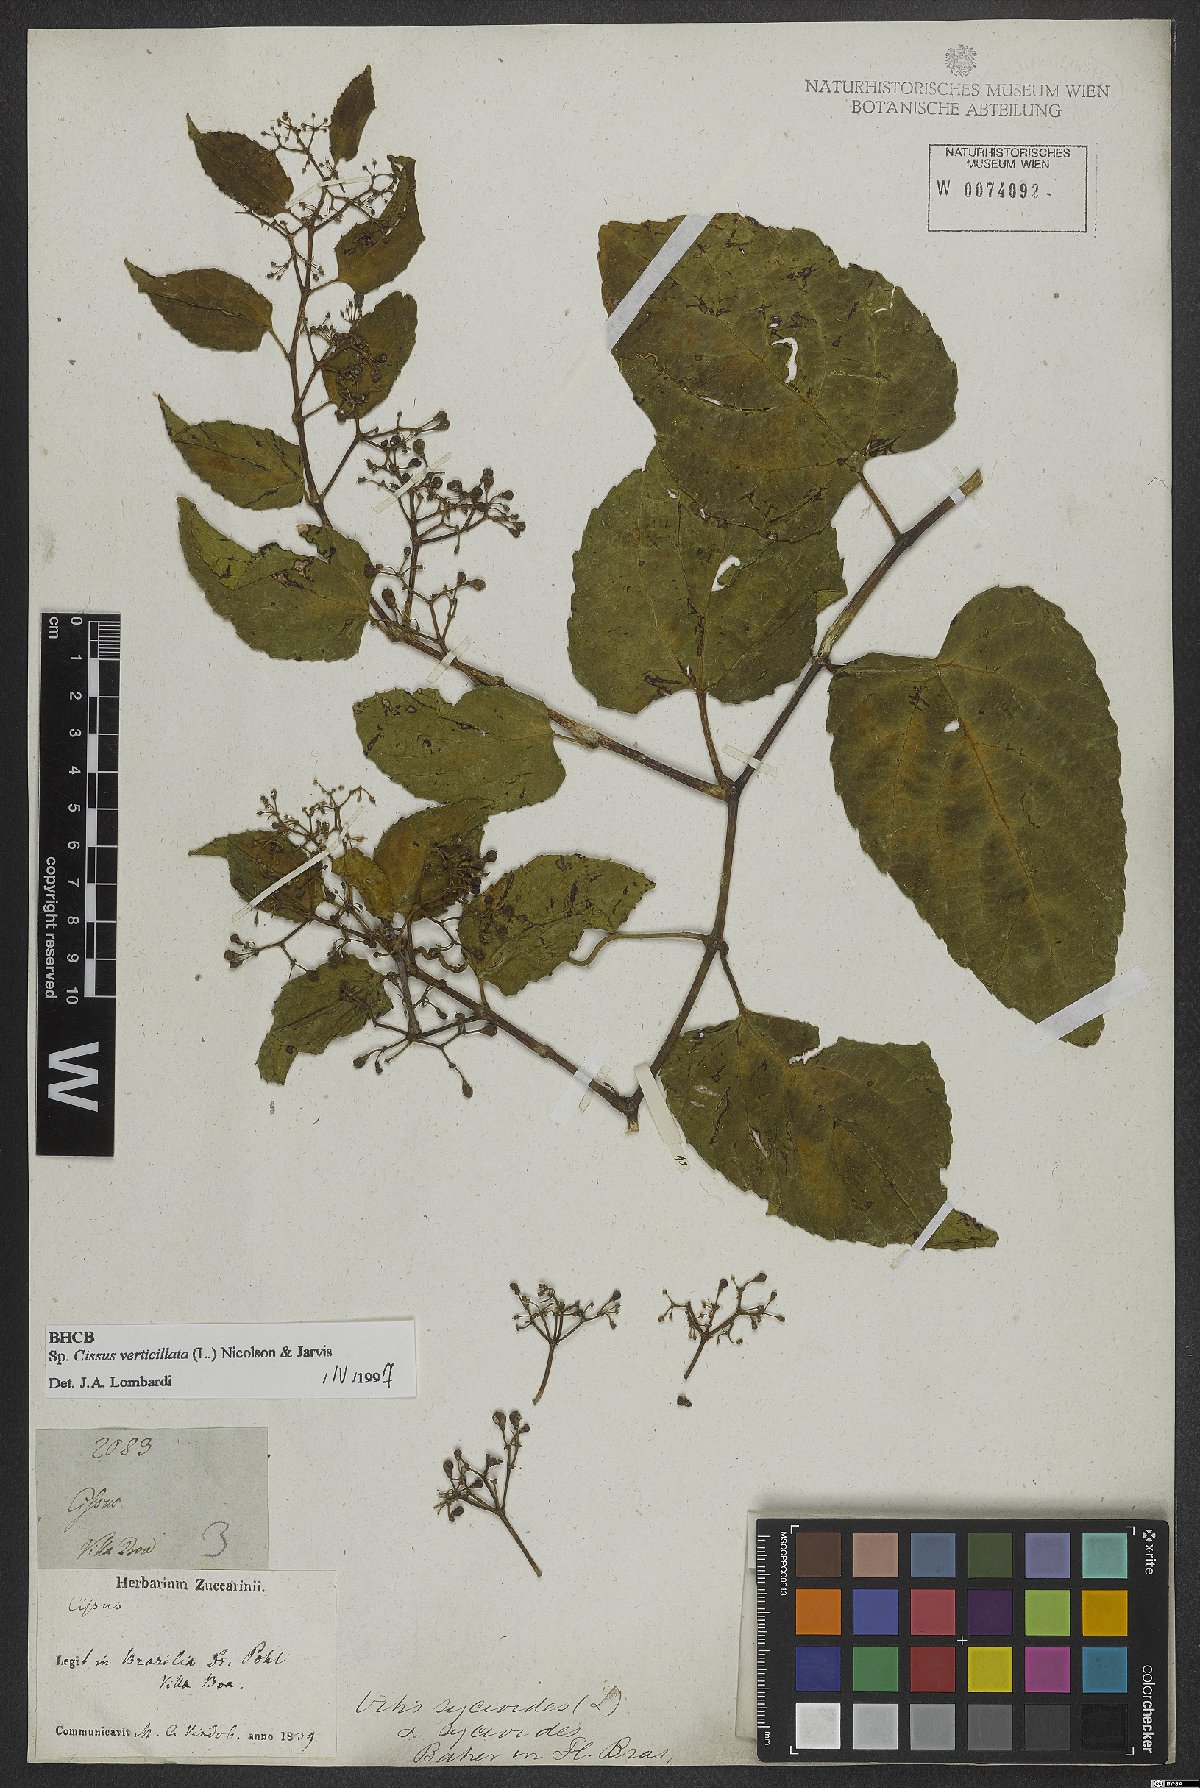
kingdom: Plantae
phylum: Tracheophyta
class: Magnoliopsida
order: Vitales
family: Vitaceae
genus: Cissus
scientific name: Cissus verticillata
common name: Princess vine
